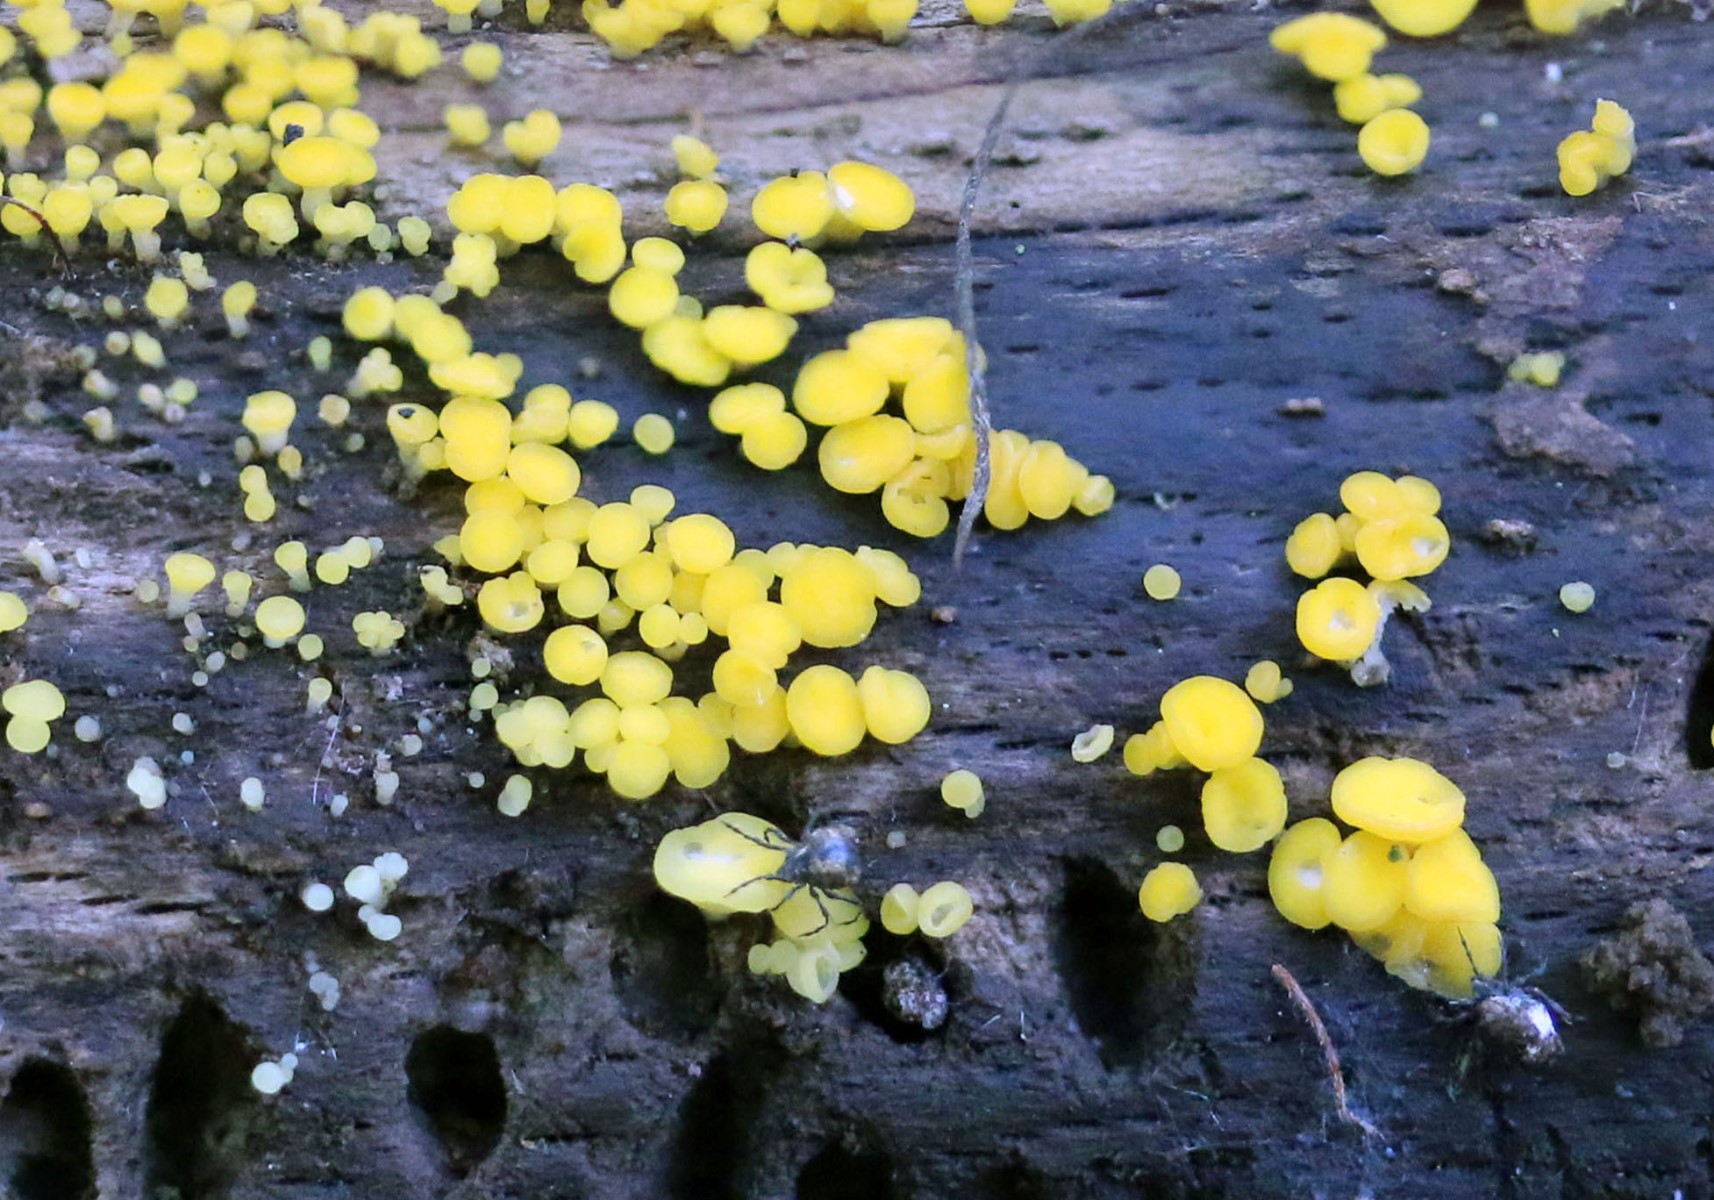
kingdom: Fungi
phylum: Ascomycota
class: Leotiomycetes
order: Helotiales
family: Pezizellaceae
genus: Calycina
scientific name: Calycina citrina
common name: almindelig gulskive
